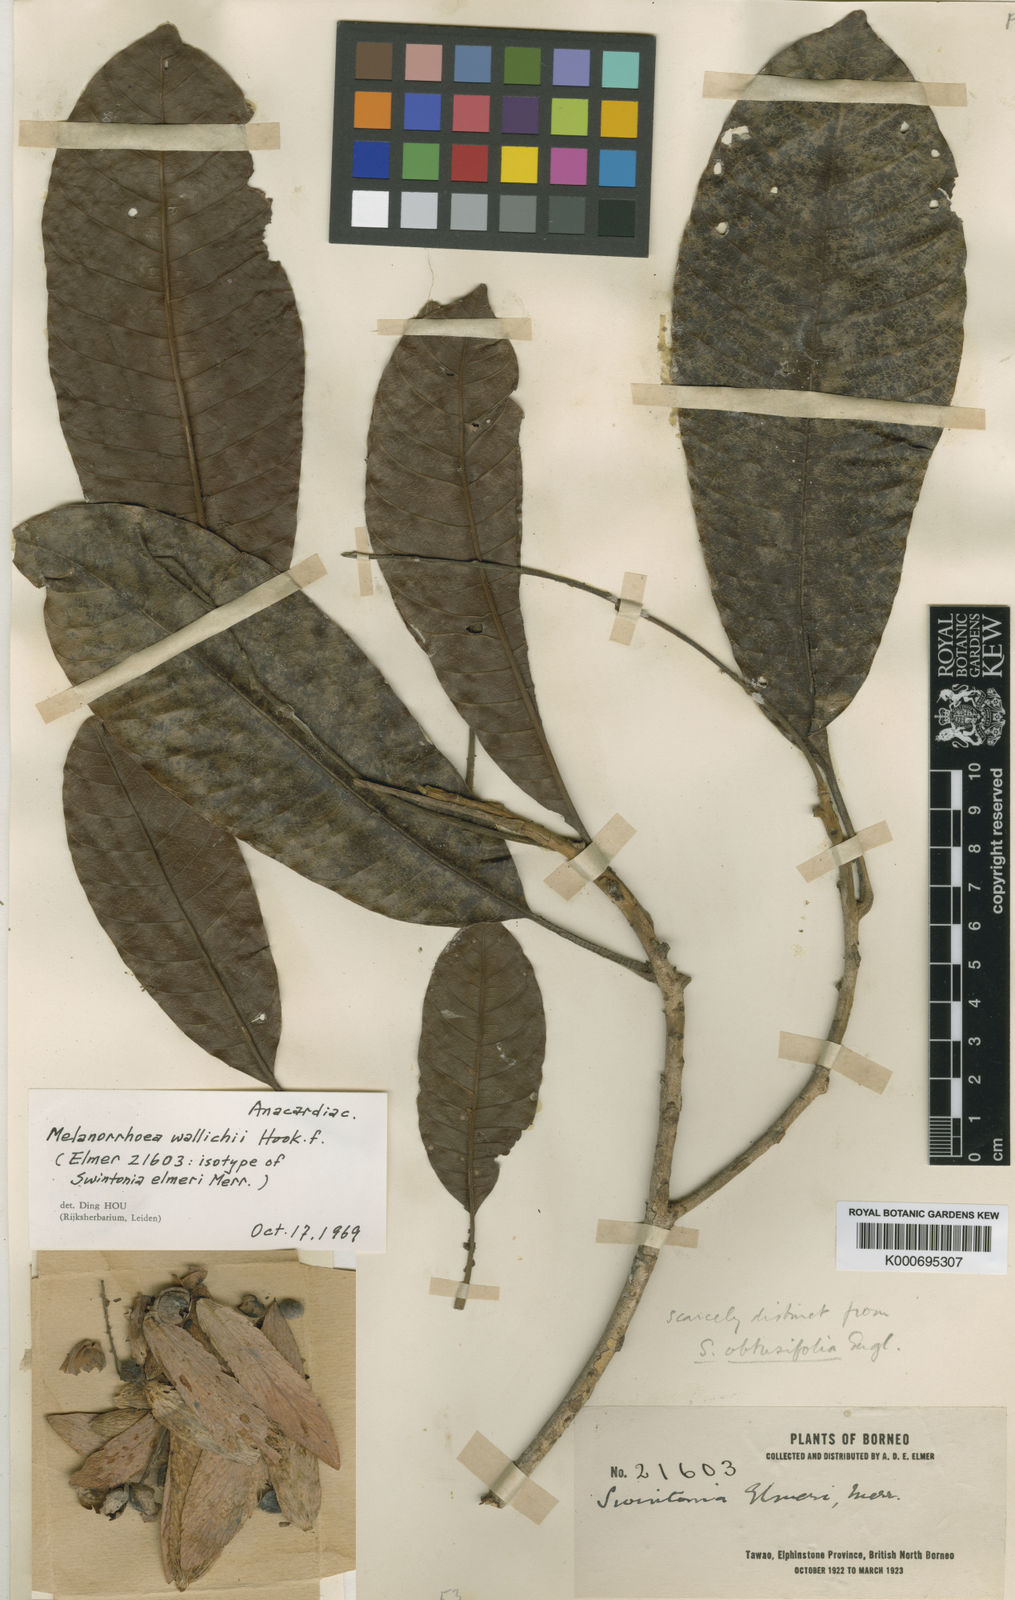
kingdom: Plantae
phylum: Tracheophyta
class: Magnoliopsida
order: Sapindales
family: Anacardiaceae
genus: Gluta
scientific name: Gluta wallichii
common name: Common rengas
